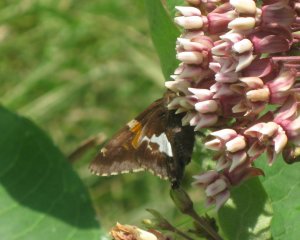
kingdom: Animalia
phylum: Arthropoda
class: Insecta
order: Lepidoptera
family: Hesperiidae
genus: Epargyreus
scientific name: Epargyreus clarus
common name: Silver-spotted Skipper
